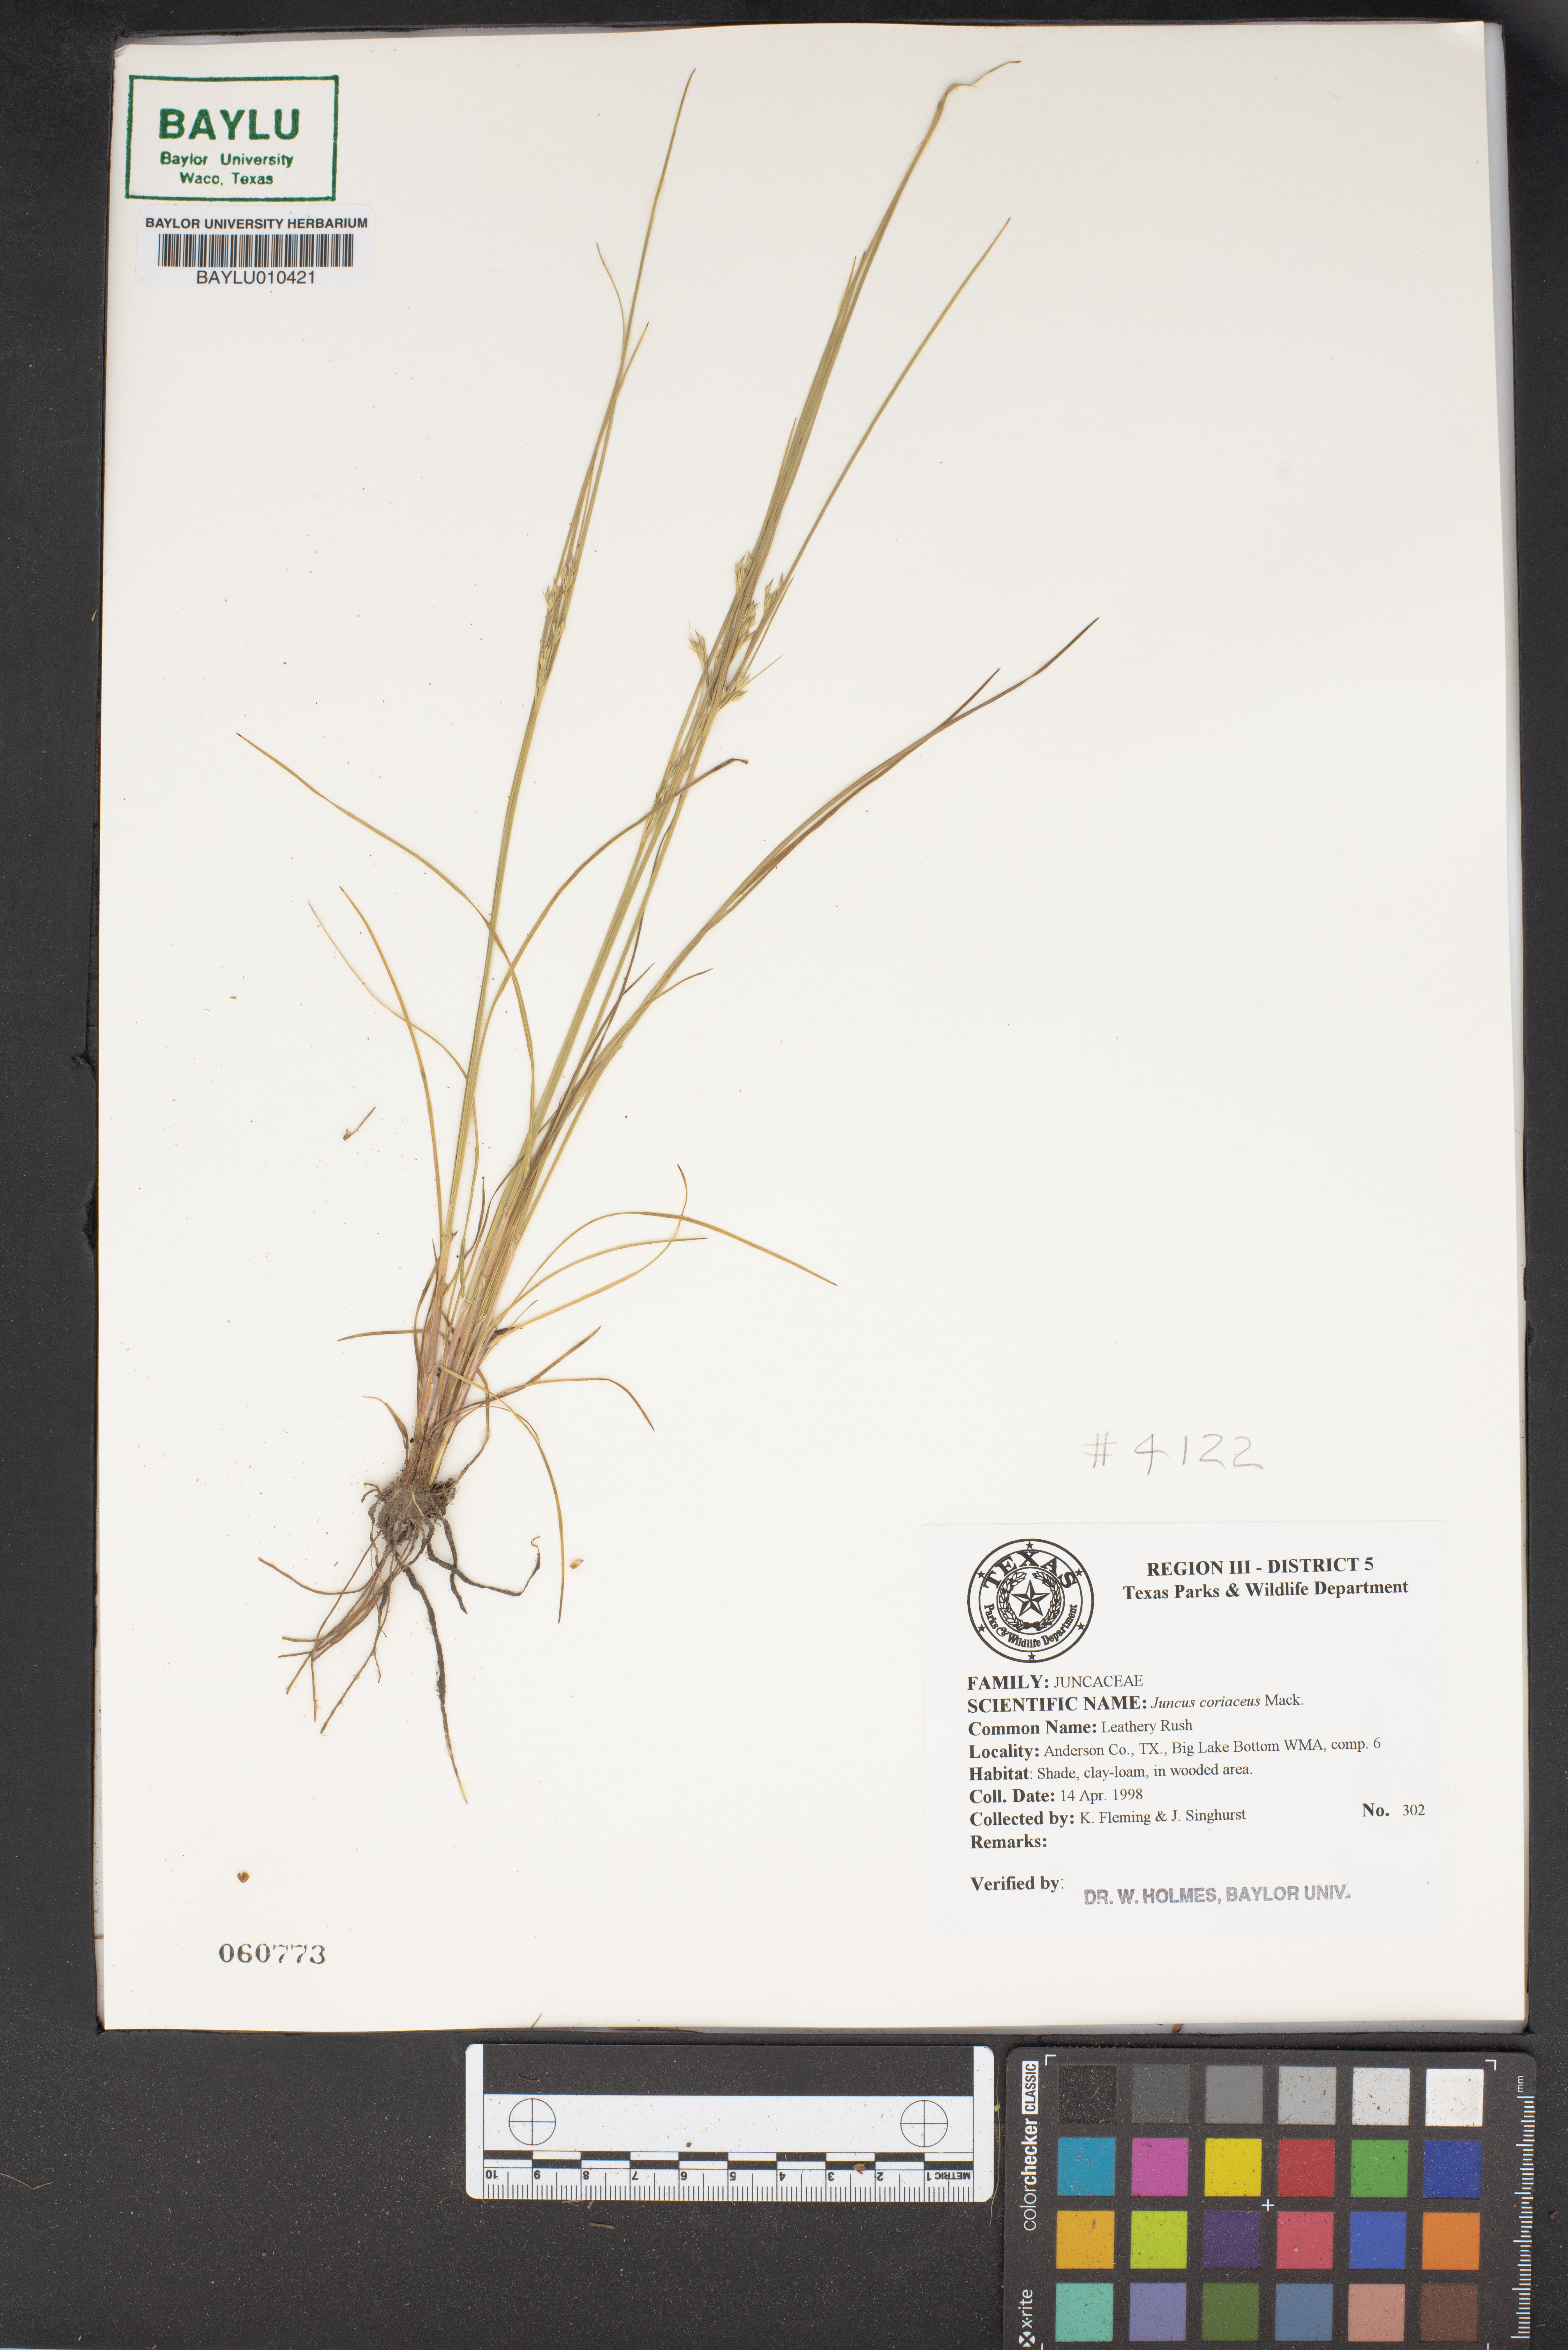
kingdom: Plantae
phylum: Tracheophyta
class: Liliopsida
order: Poales
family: Juncaceae
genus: Juncus
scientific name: Juncus coriaceus
